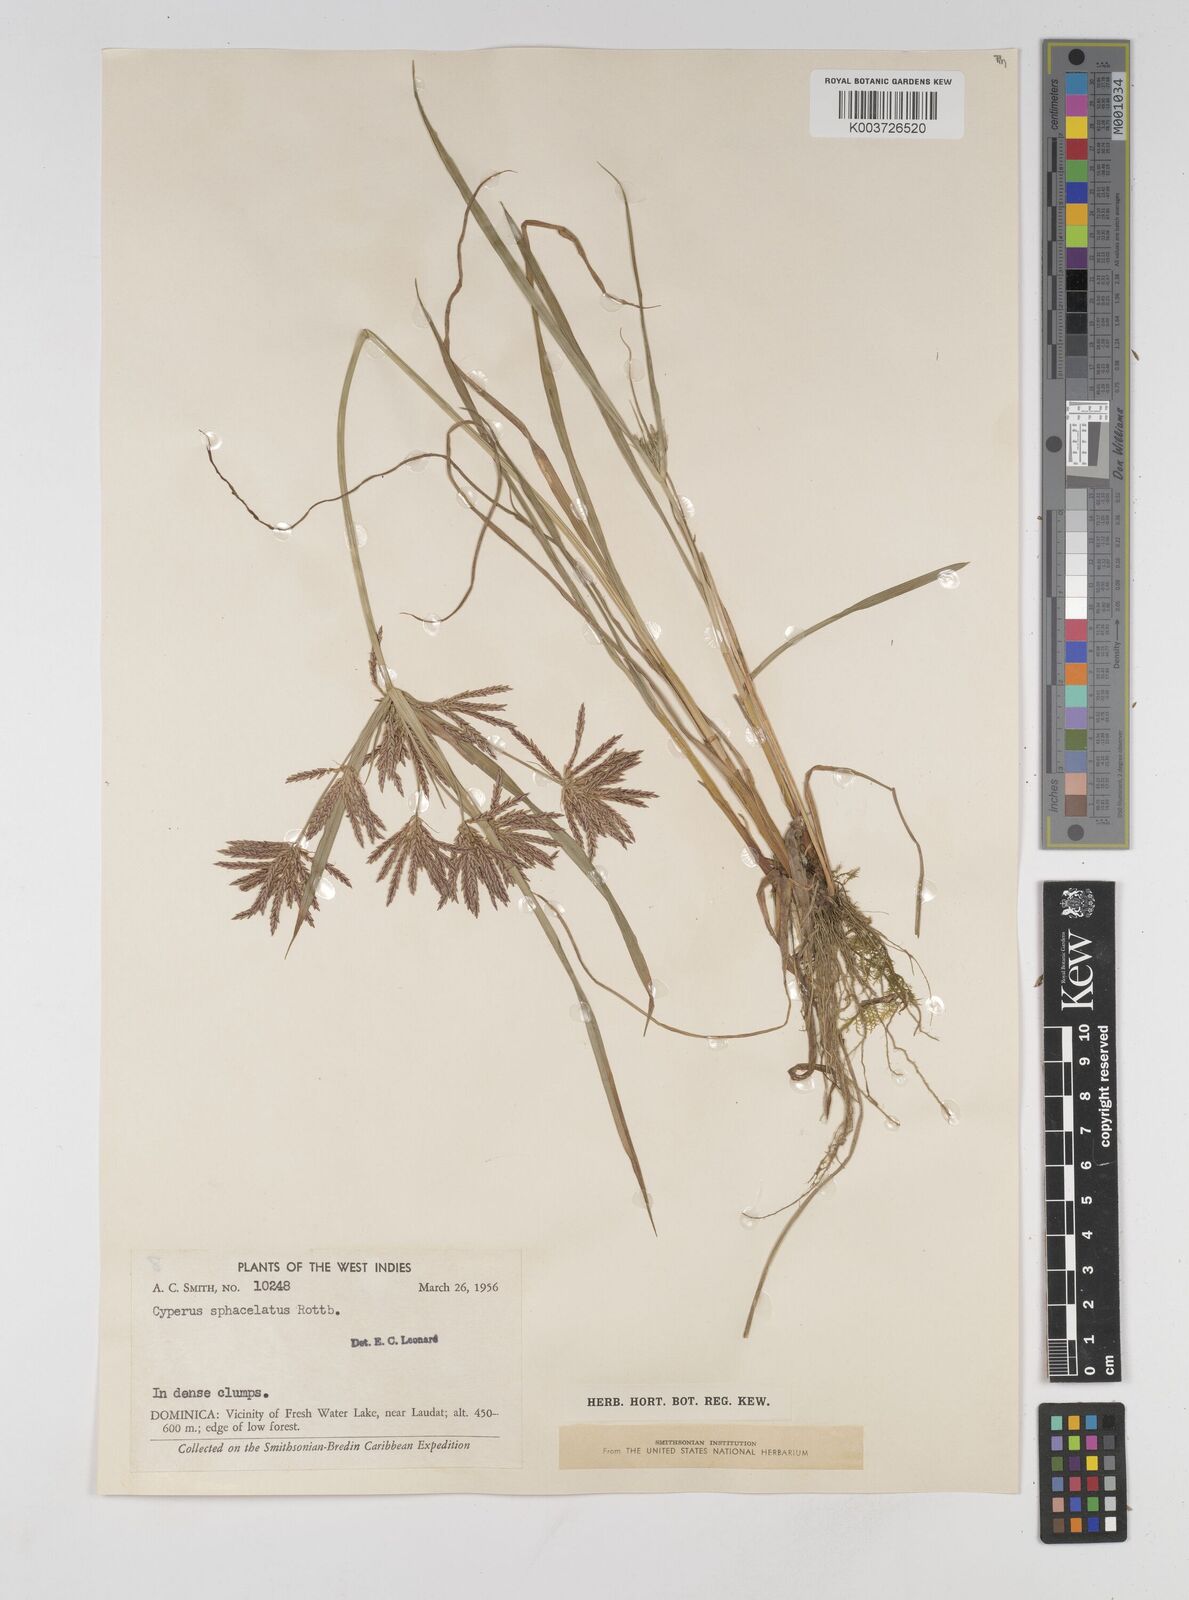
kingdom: Plantae
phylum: Tracheophyta
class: Liliopsida
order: Poales
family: Cyperaceae
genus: Cyperus
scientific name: Cyperus sphacelatus
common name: Roadside flatsedge
